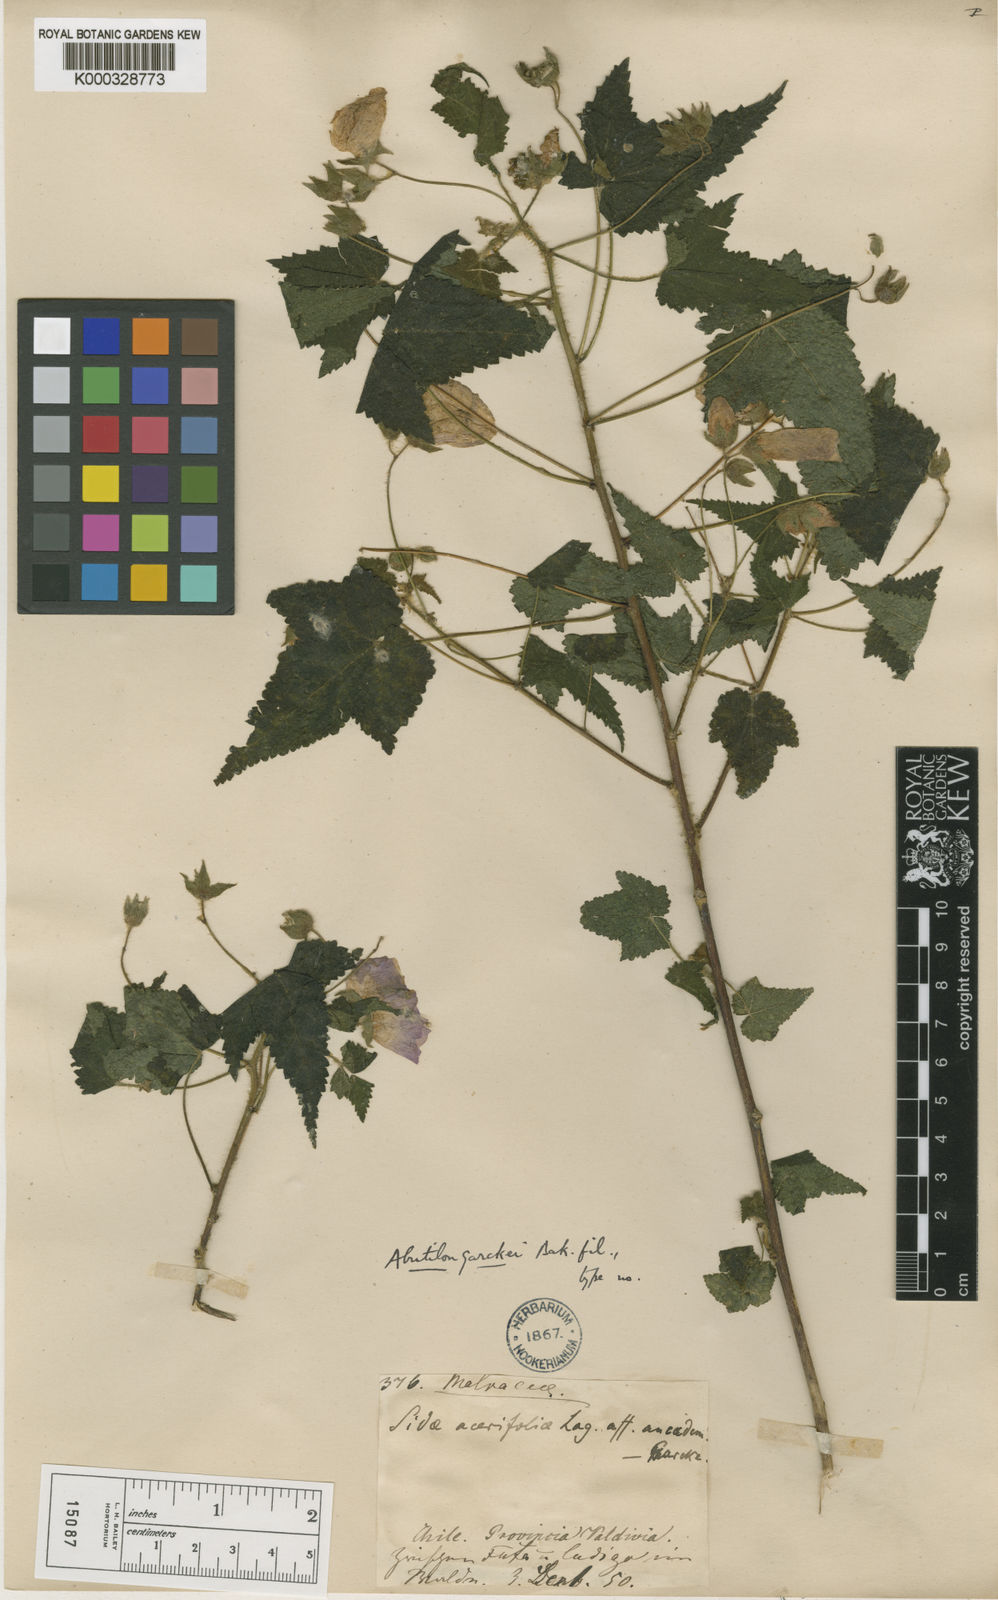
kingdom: Plantae
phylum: Tracheophyta
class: Magnoliopsida
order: Malvales
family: Malvaceae
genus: Corynabutilon
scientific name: Corynabutilon
